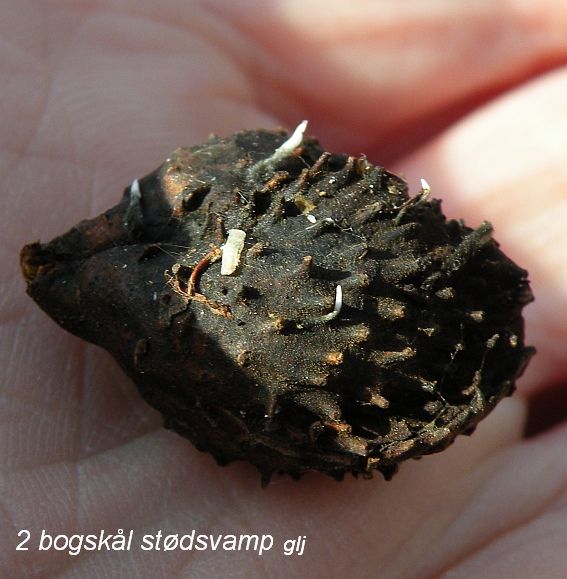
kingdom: Fungi
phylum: Ascomycota
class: Sordariomycetes
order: Xylariales
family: Xylariaceae
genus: Xylaria
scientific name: Xylaria carpophila
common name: bogskål-stødsvamp
